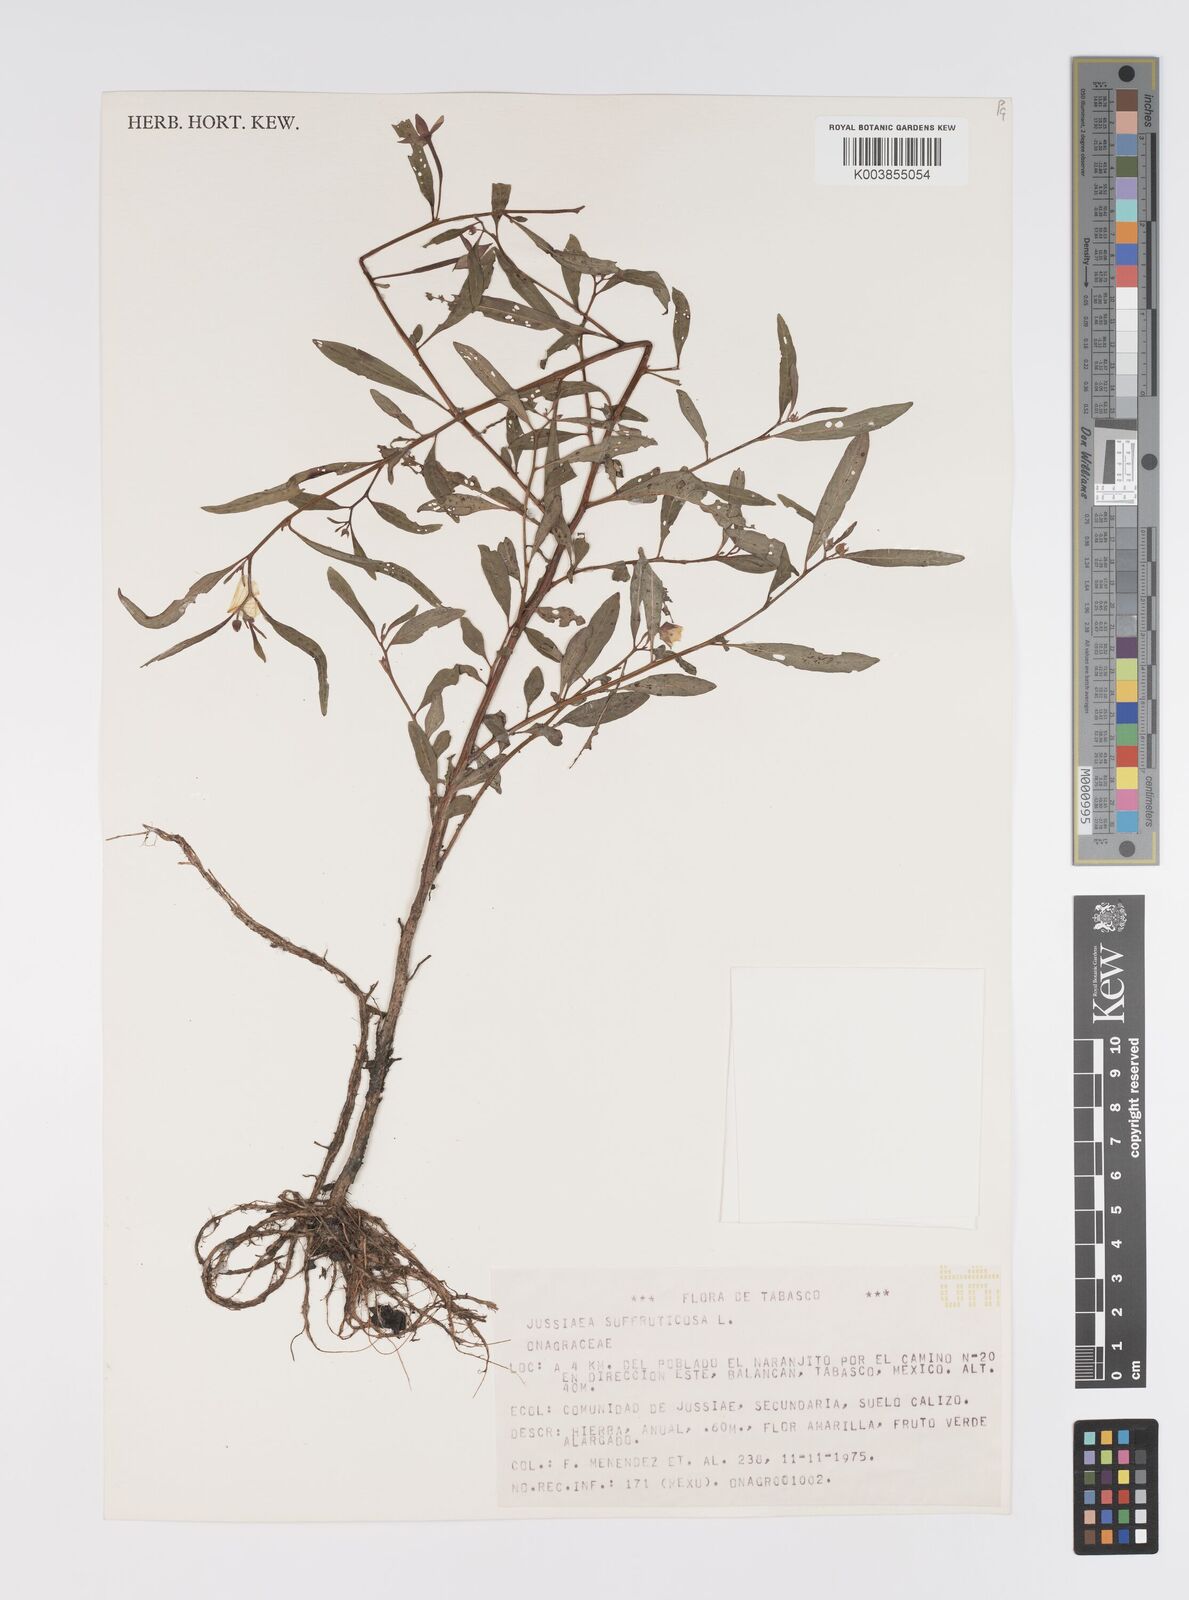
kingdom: Plantae
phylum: Tracheophyta
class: Magnoliopsida
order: Myrtales
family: Onagraceae
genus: Ludwigia
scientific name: Ludwigia octovalvis
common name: Water-primrose
